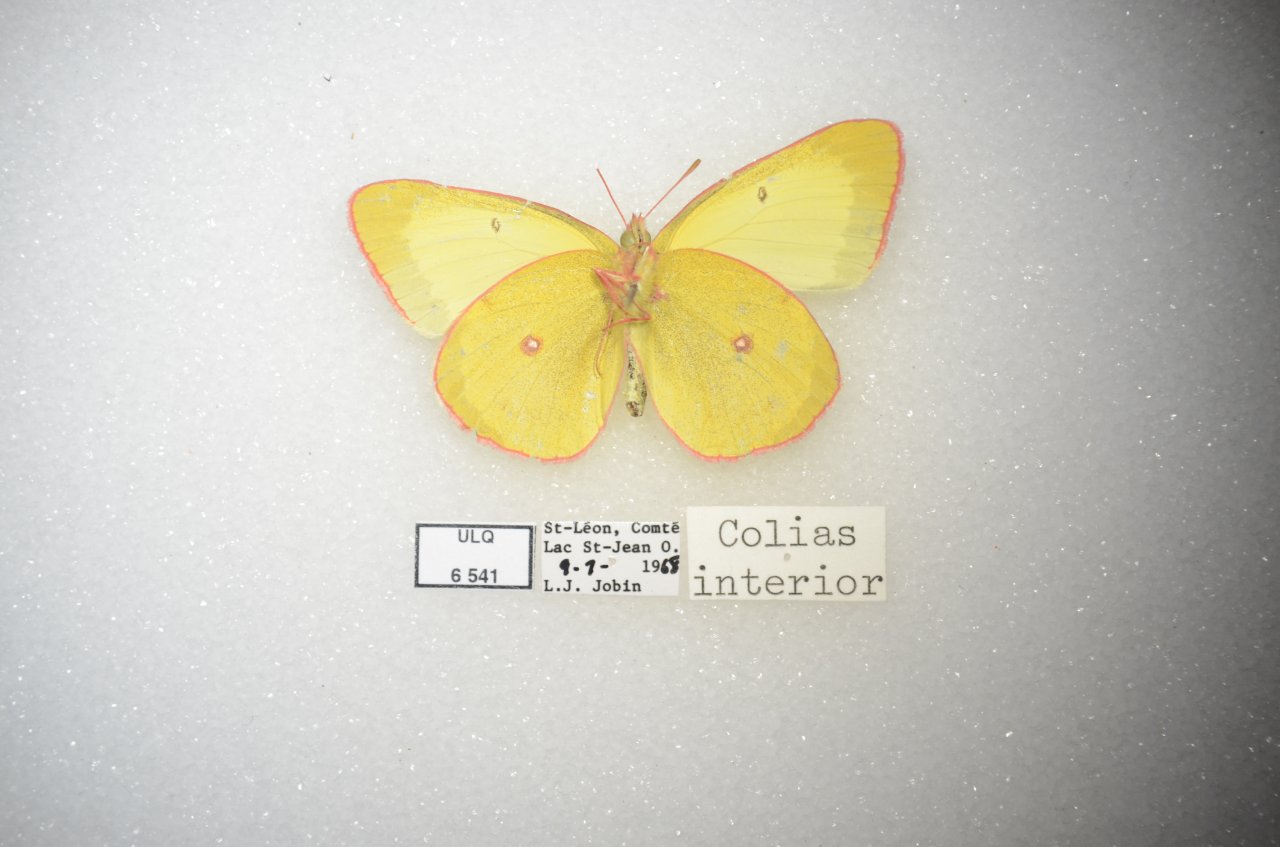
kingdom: Animalia
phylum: Arthropoda
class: Insecta
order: Lepidoptera
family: Pieridae
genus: Colias
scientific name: Colias interior
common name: Pink-edged Sulphur
